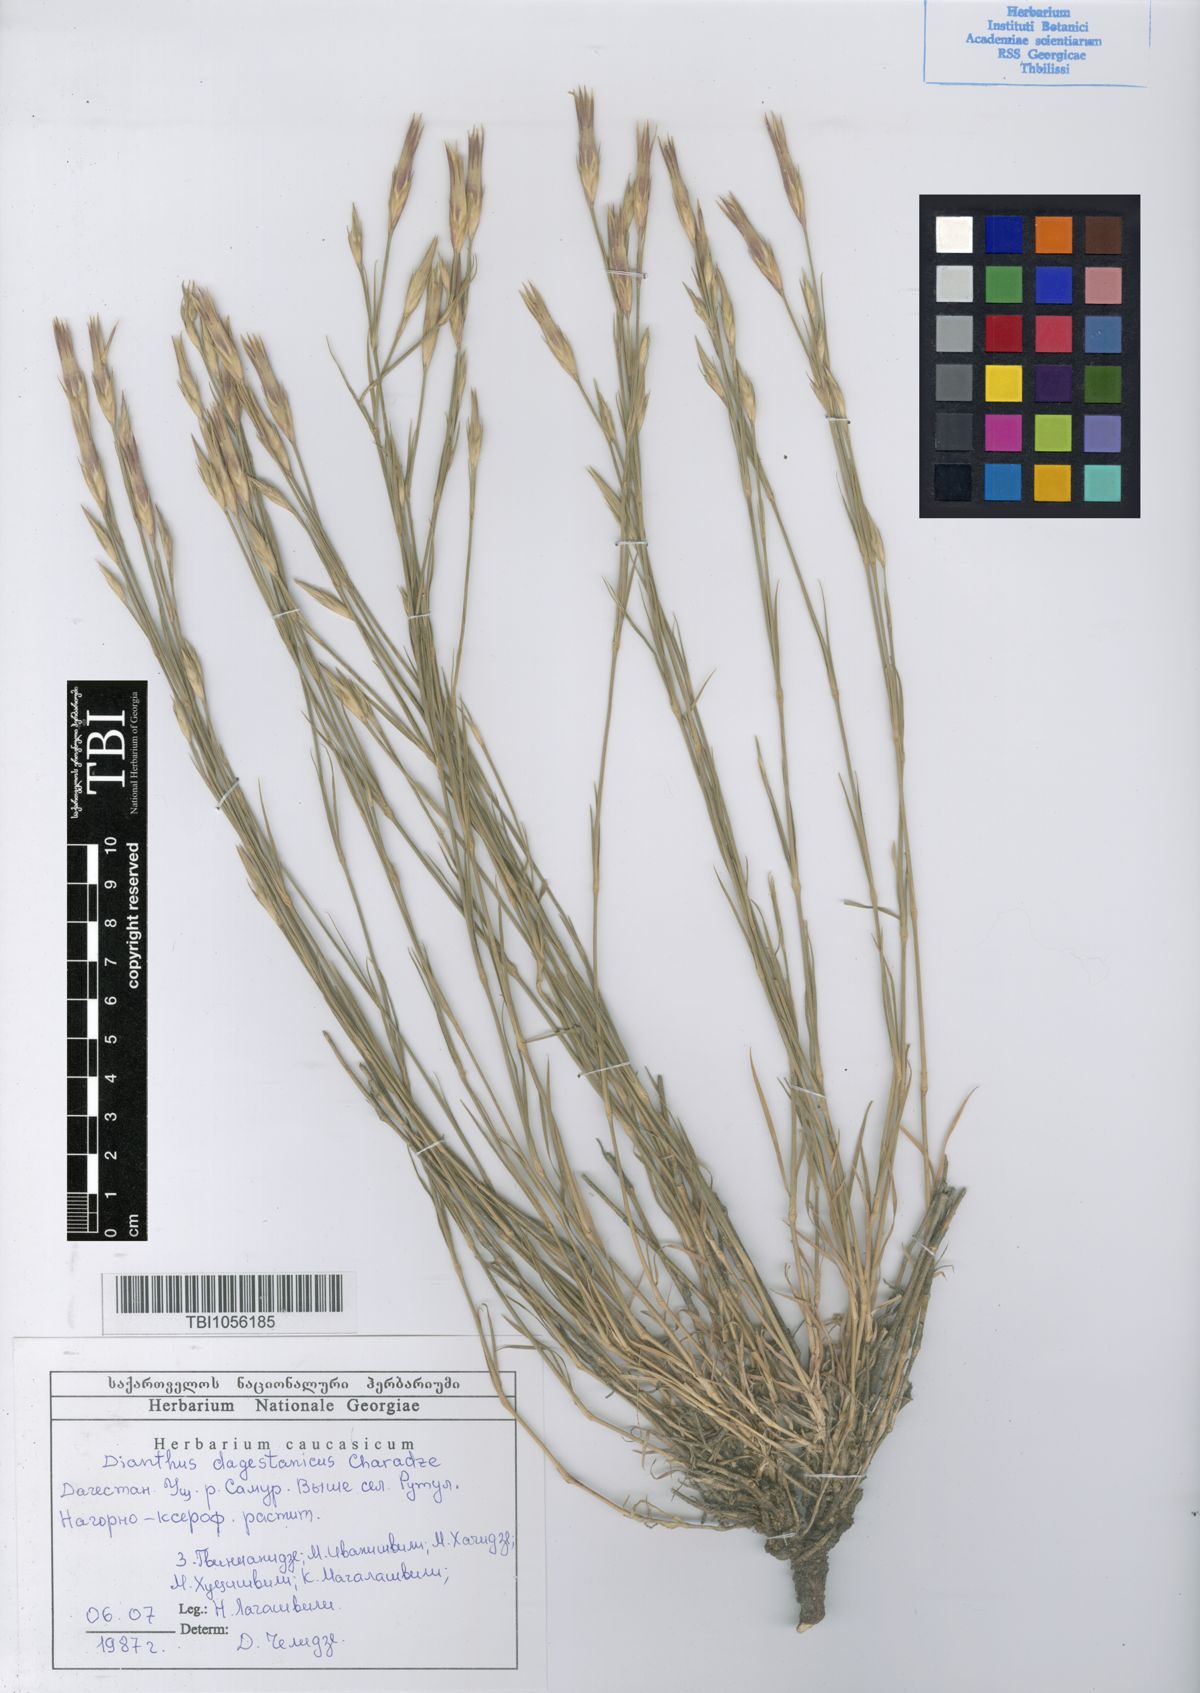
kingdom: Plantae
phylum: Tracheophyta
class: Magnoliopsida
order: Caryophyllales
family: Caryophyllaceae
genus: Dianthus
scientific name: Dianthus daghestanicus
